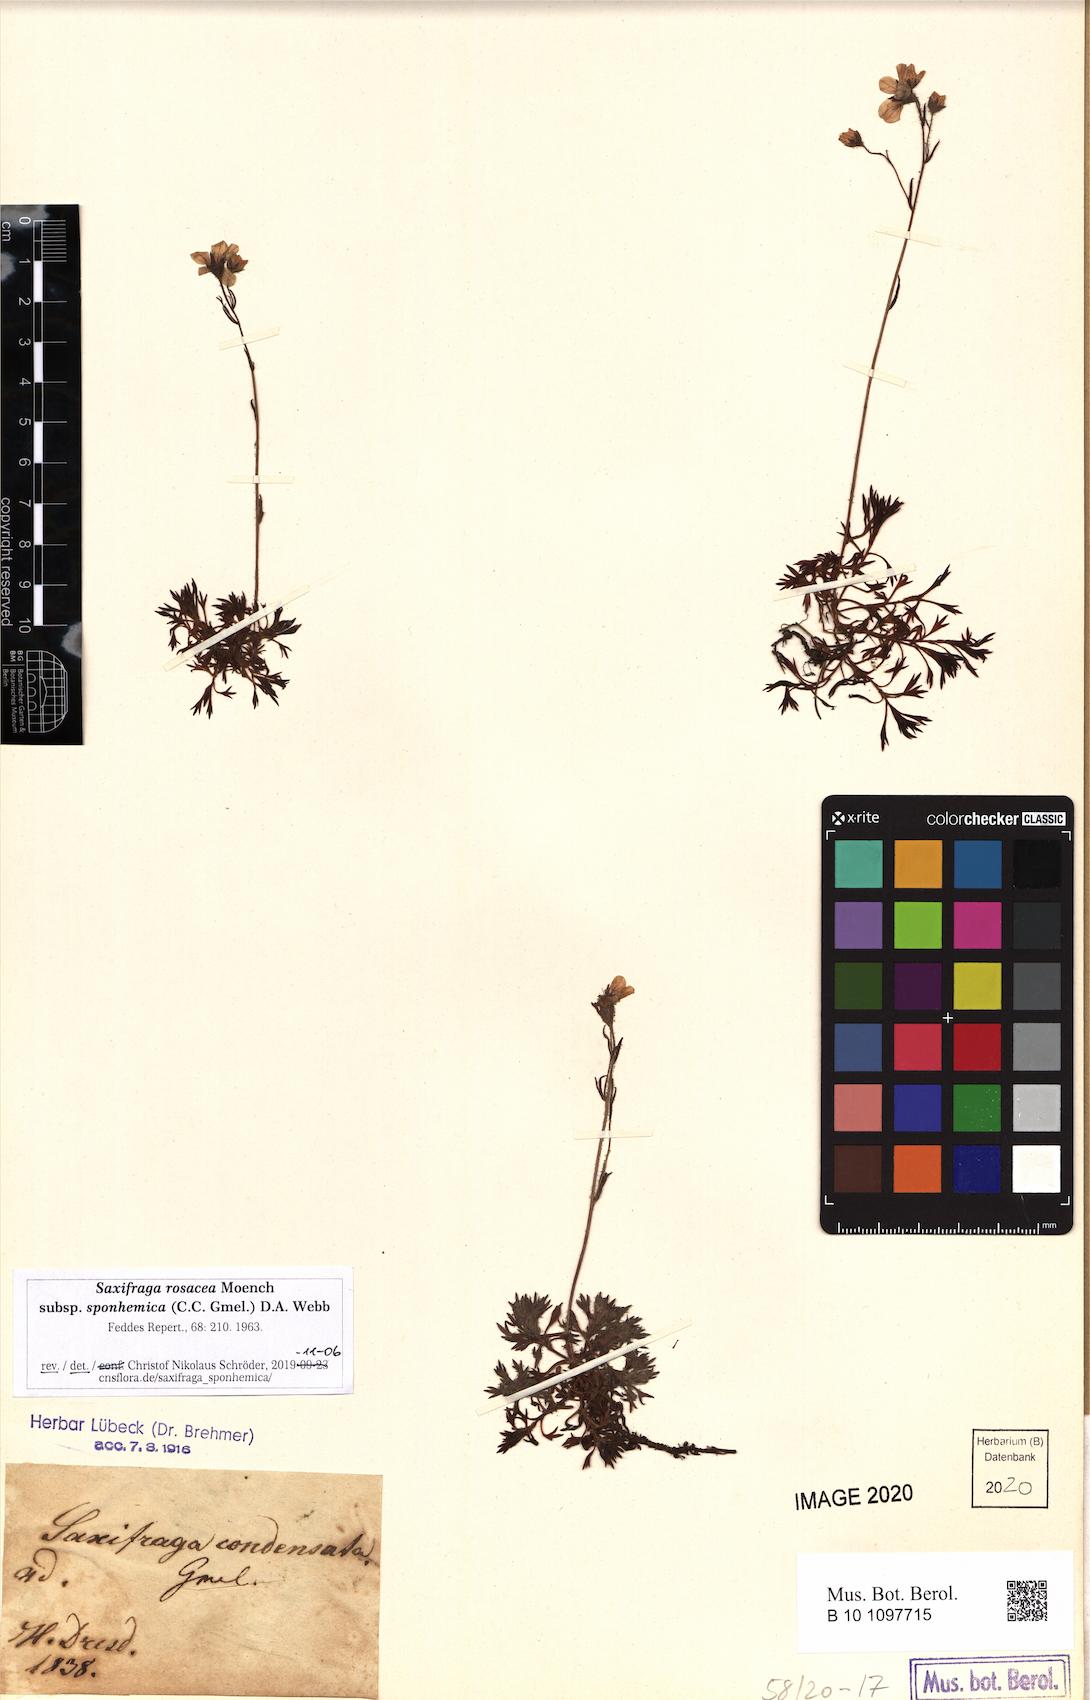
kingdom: Plantae
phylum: Tracheophyta
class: Magnoliopsida
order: Saxifragales
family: Saxifragaceae
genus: Saxifraga
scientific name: Saxifraga rosacea
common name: Irish saxifrage
